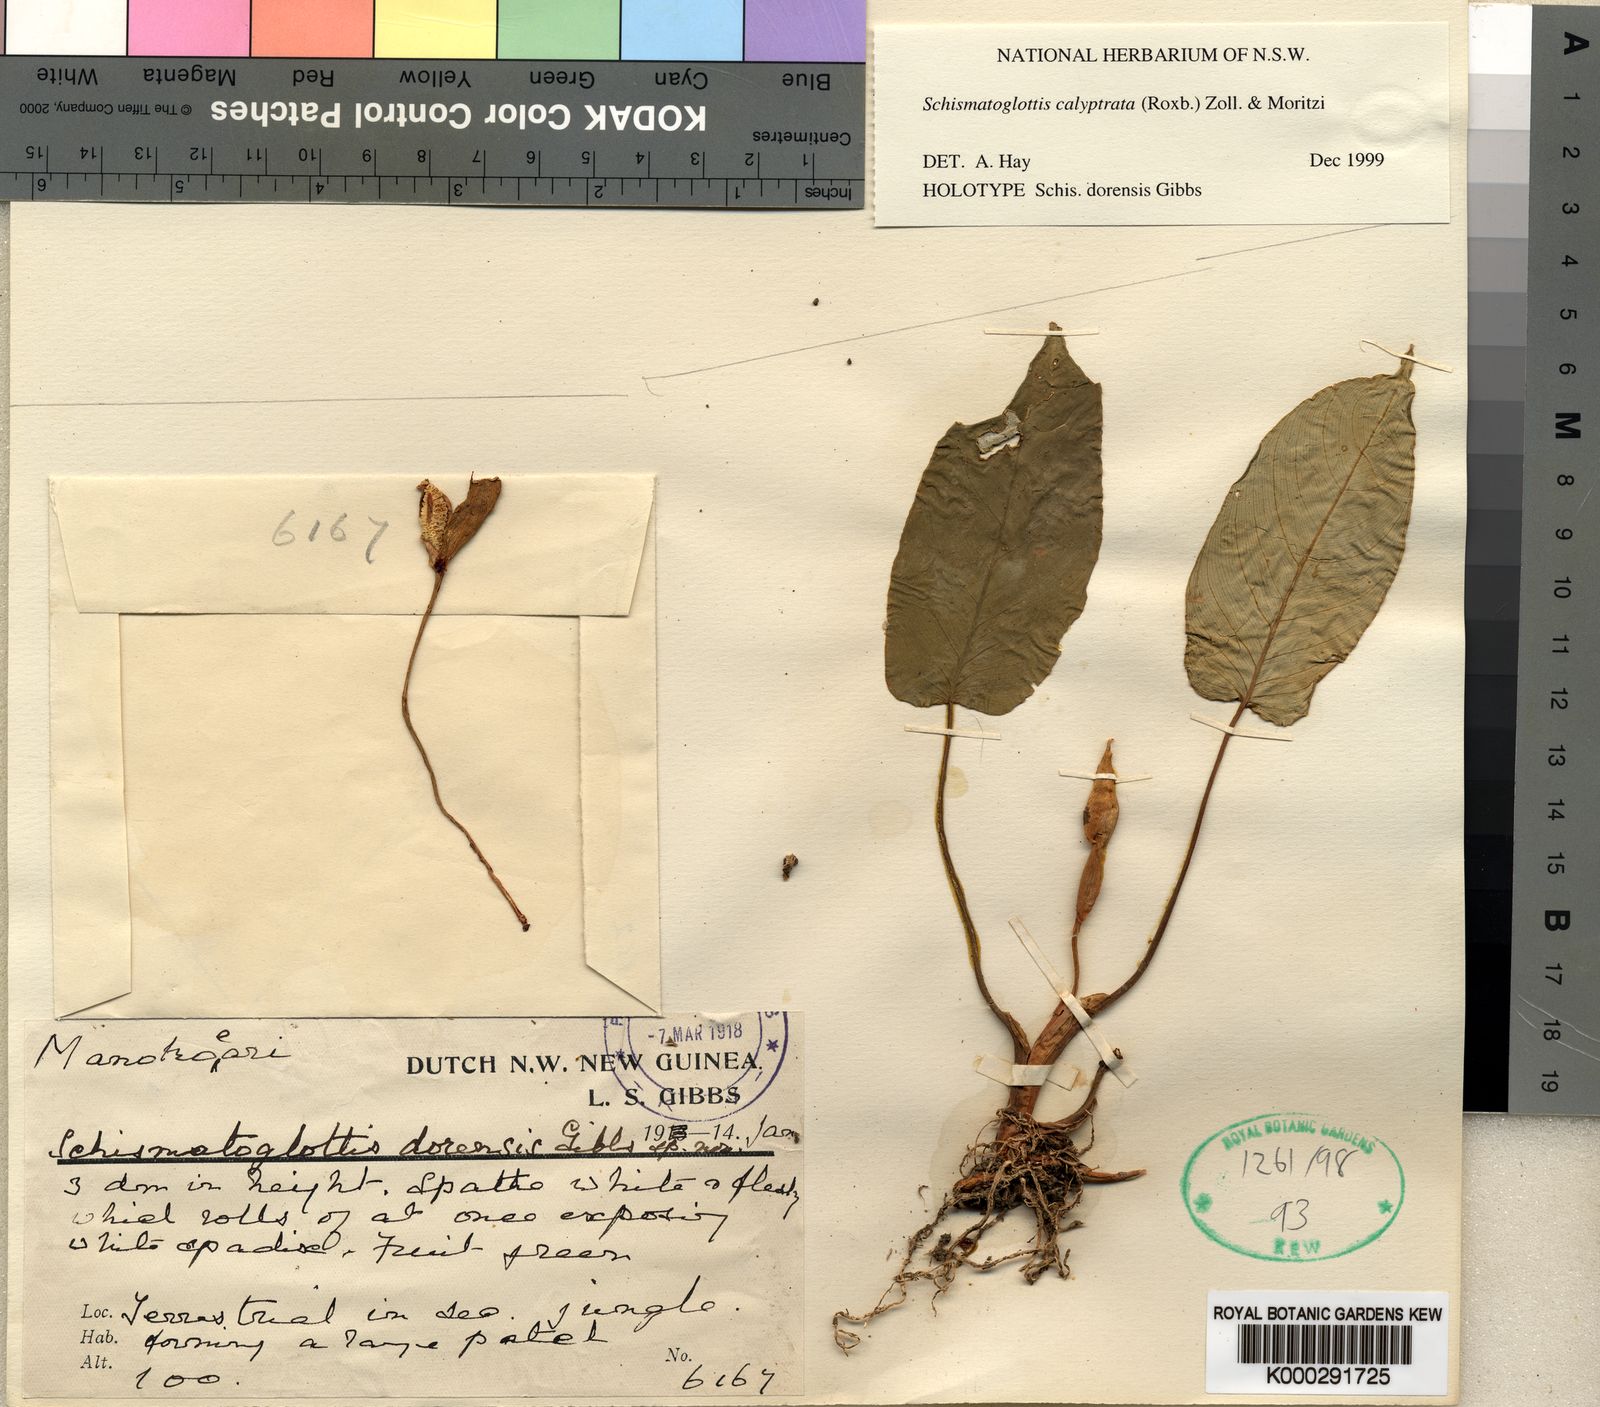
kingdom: Plantae
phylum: Tracheophyta
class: Liliopsida
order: Alismatales
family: Araceae
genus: Schismatoglottis
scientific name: Schismatoglottis calyptrata
